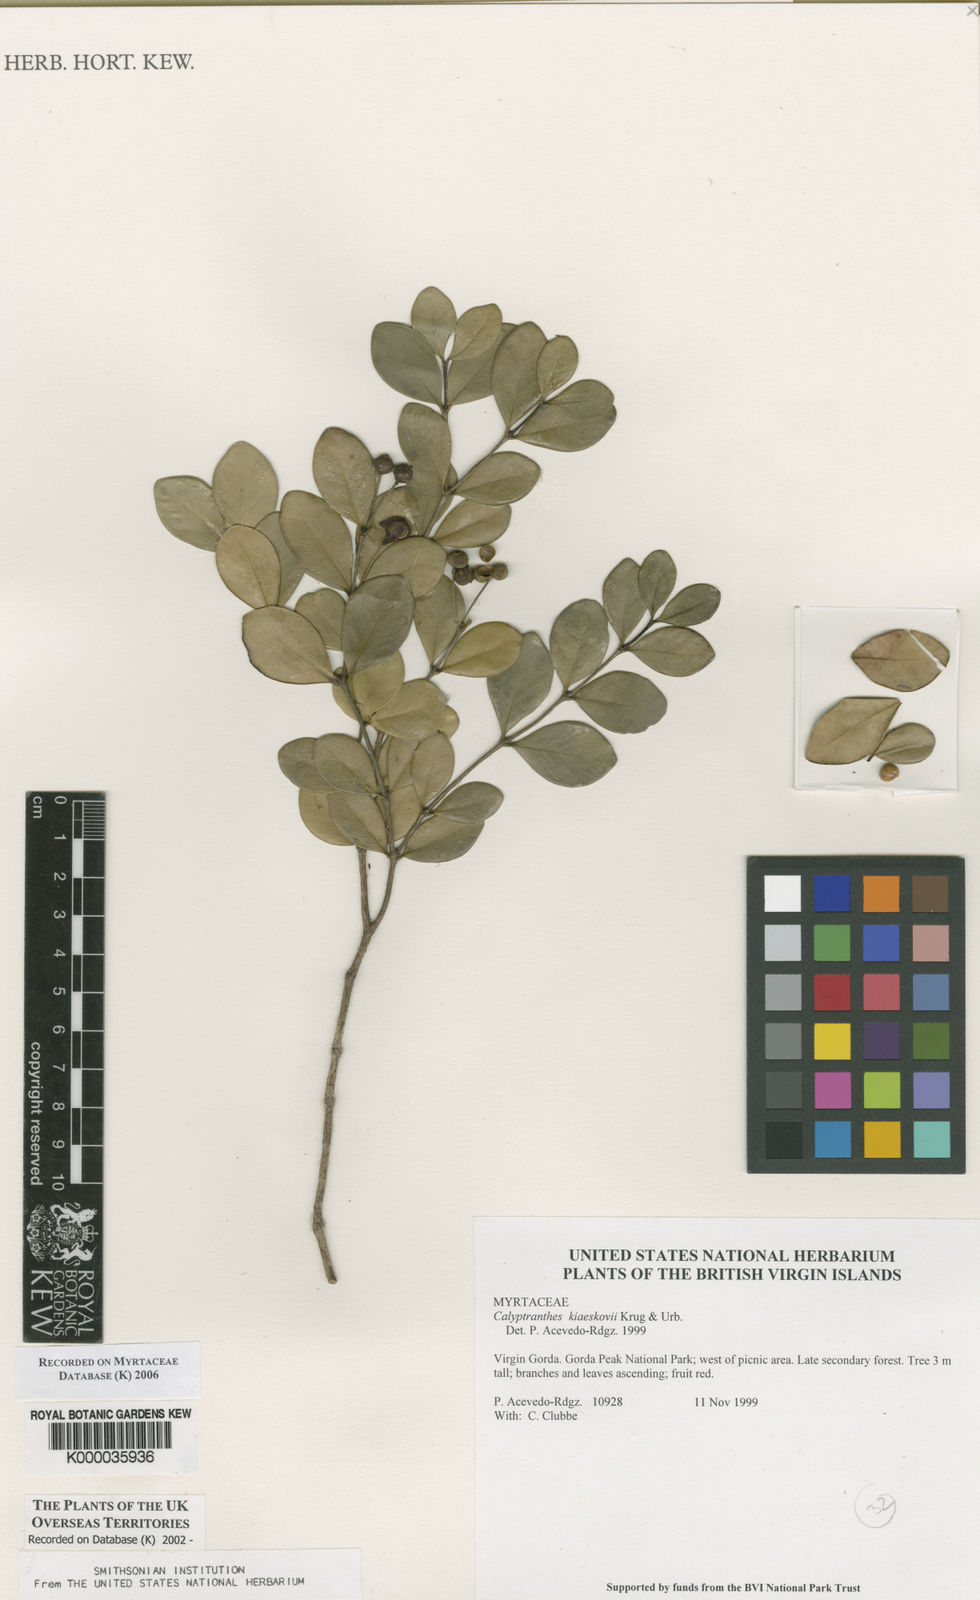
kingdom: Plantae
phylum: Tracheophyta
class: Magnoliopsida
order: Myrtales
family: Myrtaceae
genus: Myrcia
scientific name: Myrcia neokiaerskovii
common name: Kiaerskovii lidflower
